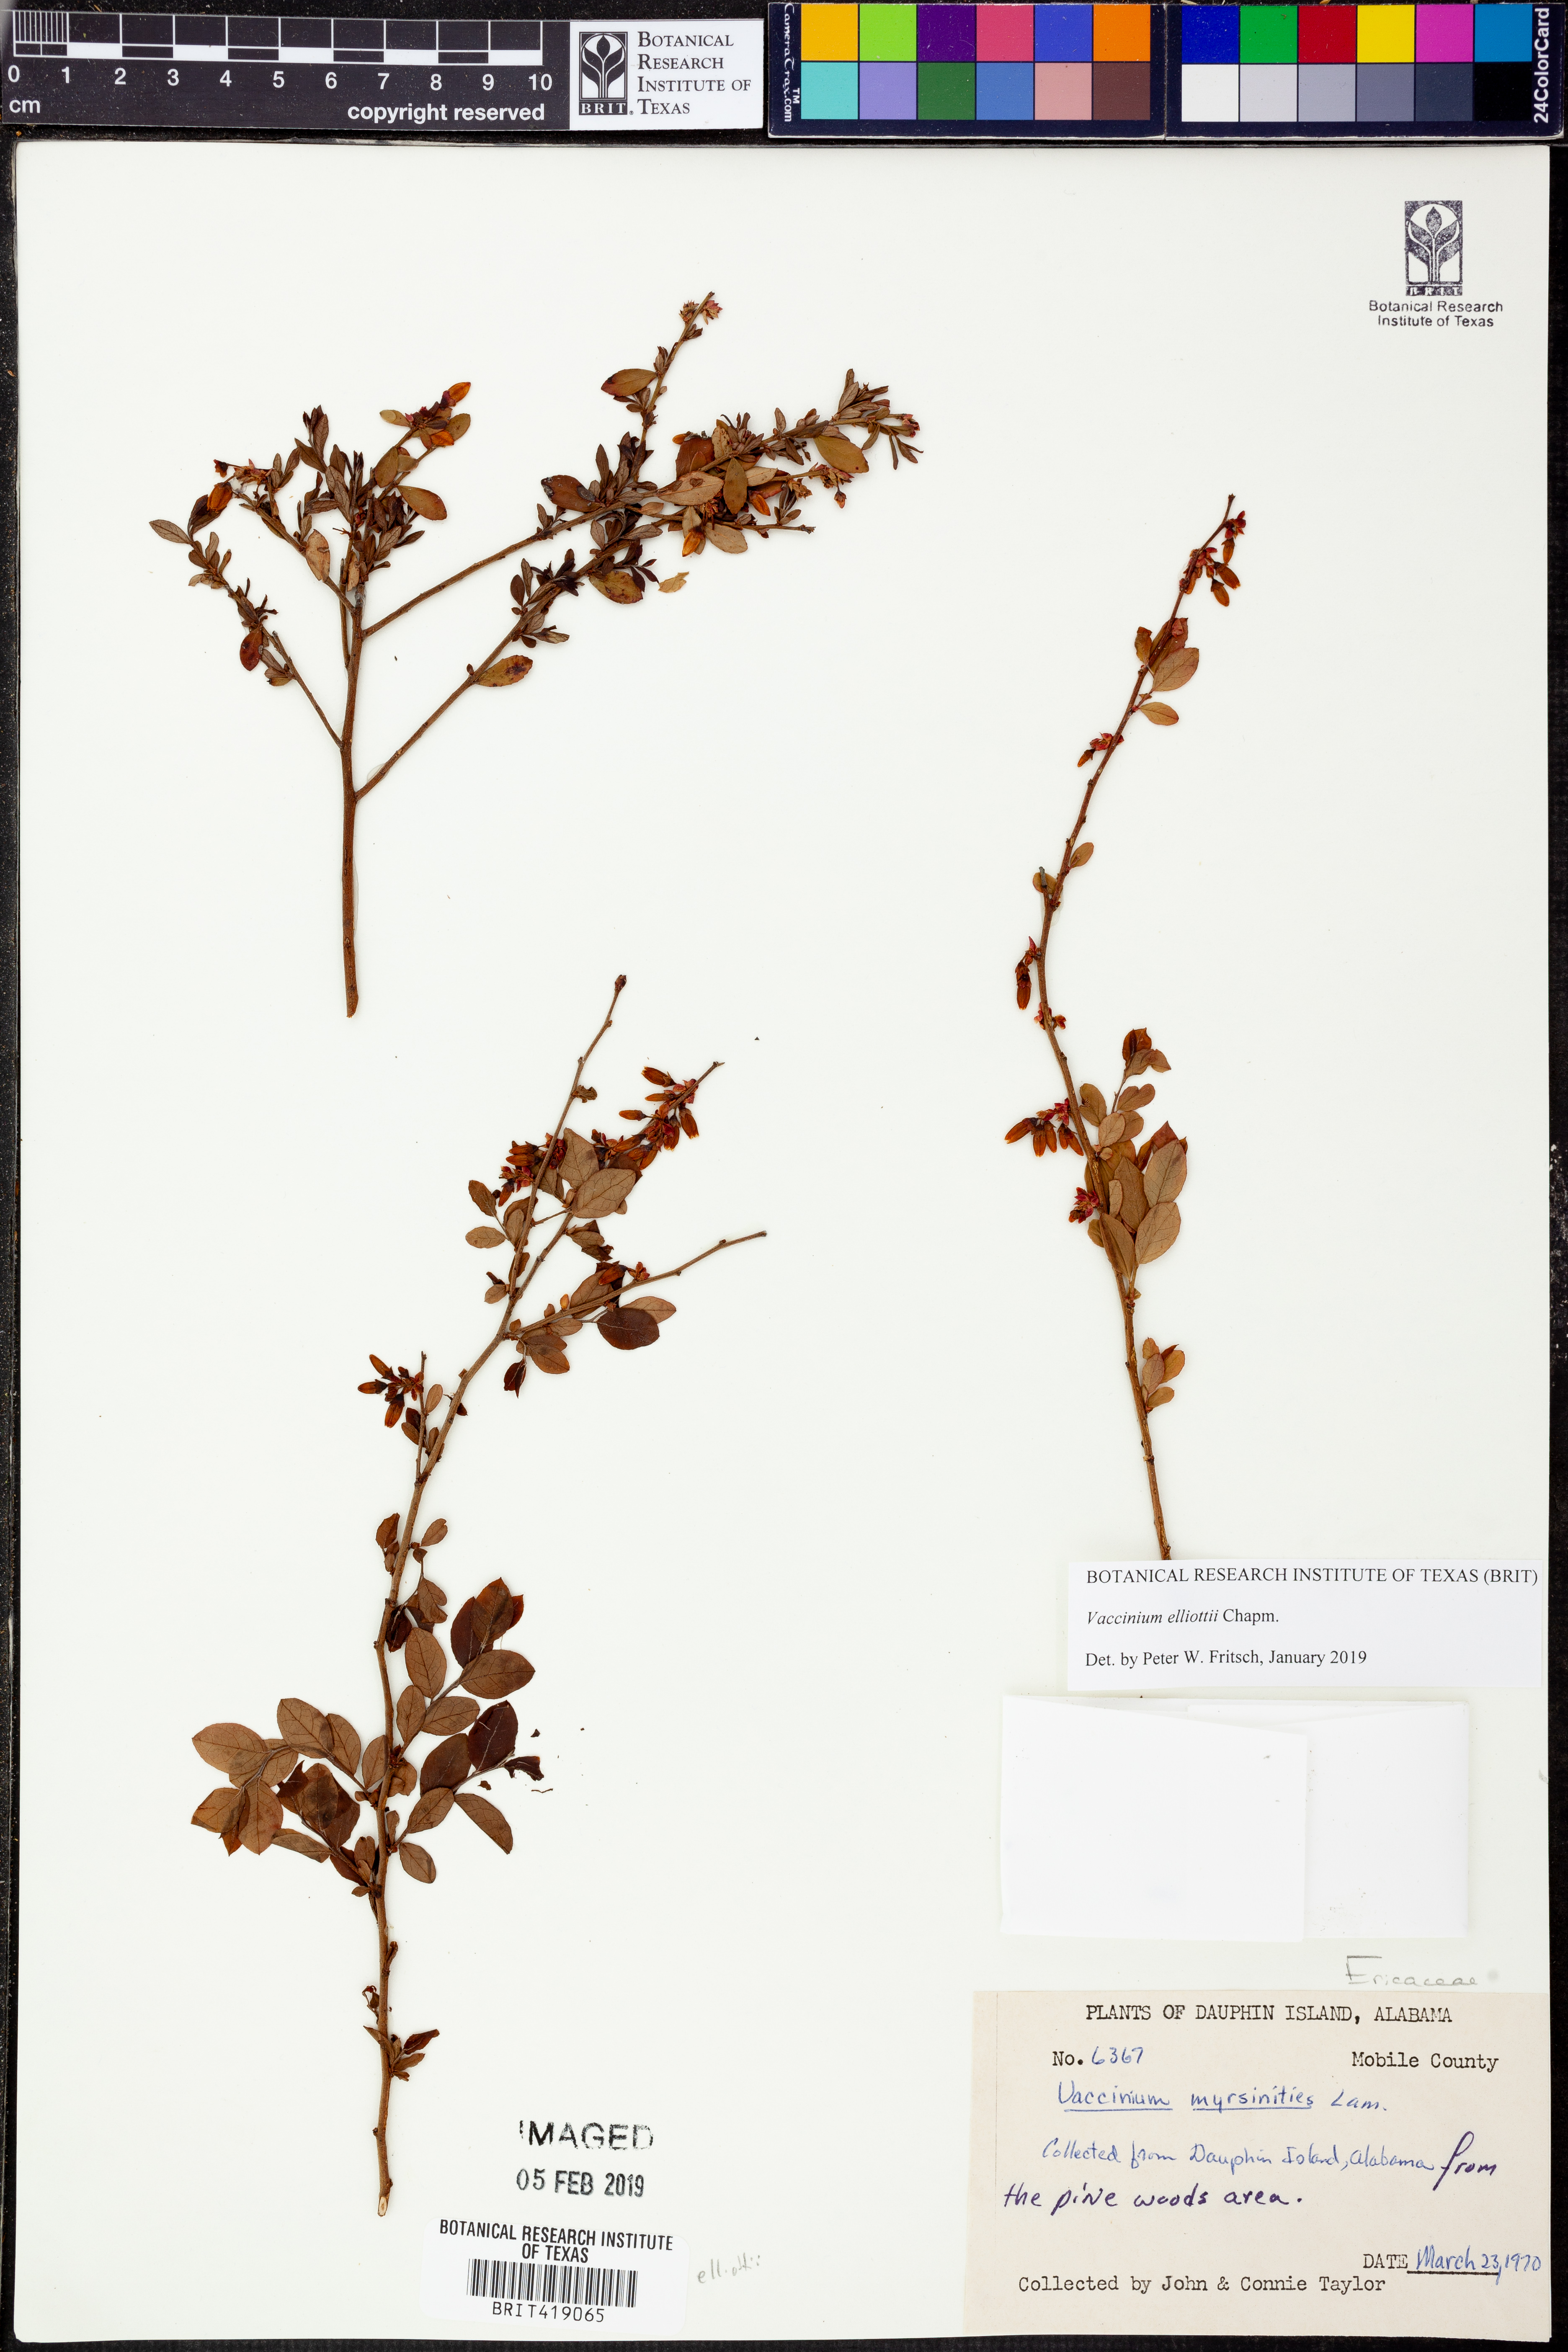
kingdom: Plantae
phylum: Tracheophyta
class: Magnoliopsida
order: Ericales
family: Ericaceae
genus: Vaccinium
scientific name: Vaccinium corymbosum
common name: Blueberry
